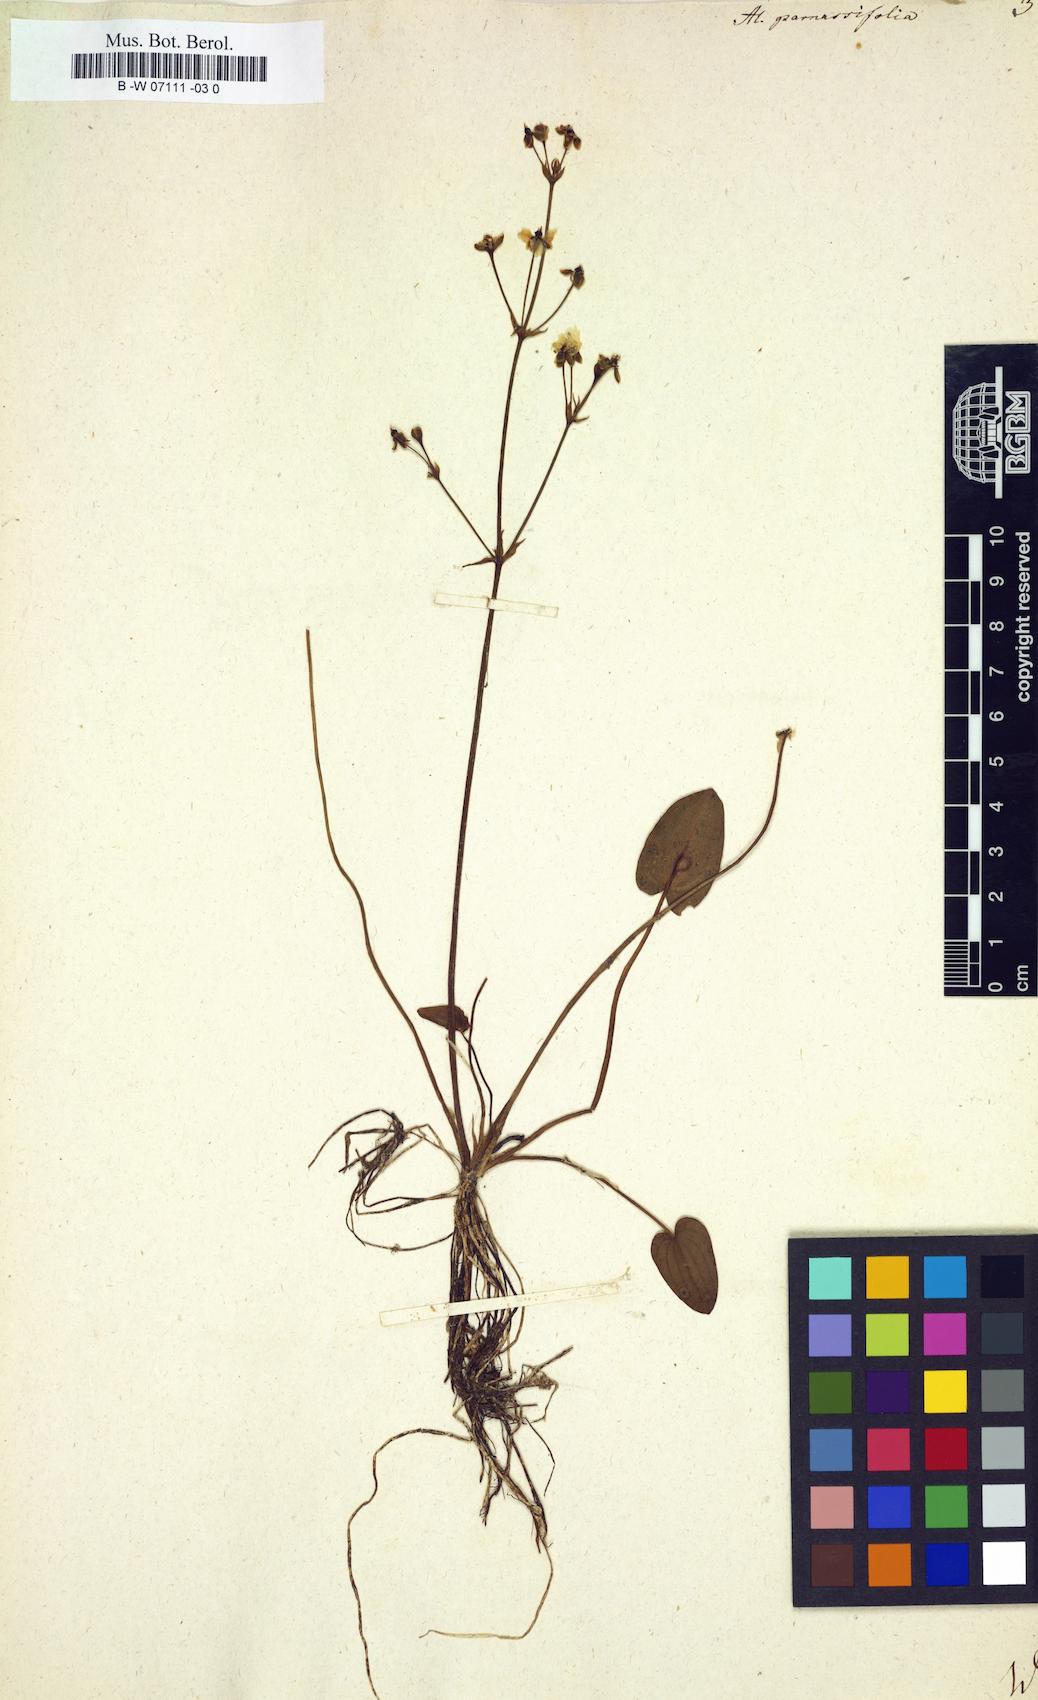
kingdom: Plantae
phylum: Tracheophyta
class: Liliopsida
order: Alismatales
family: Alismataceae
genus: Alisma
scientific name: Alisma parnassifolium
